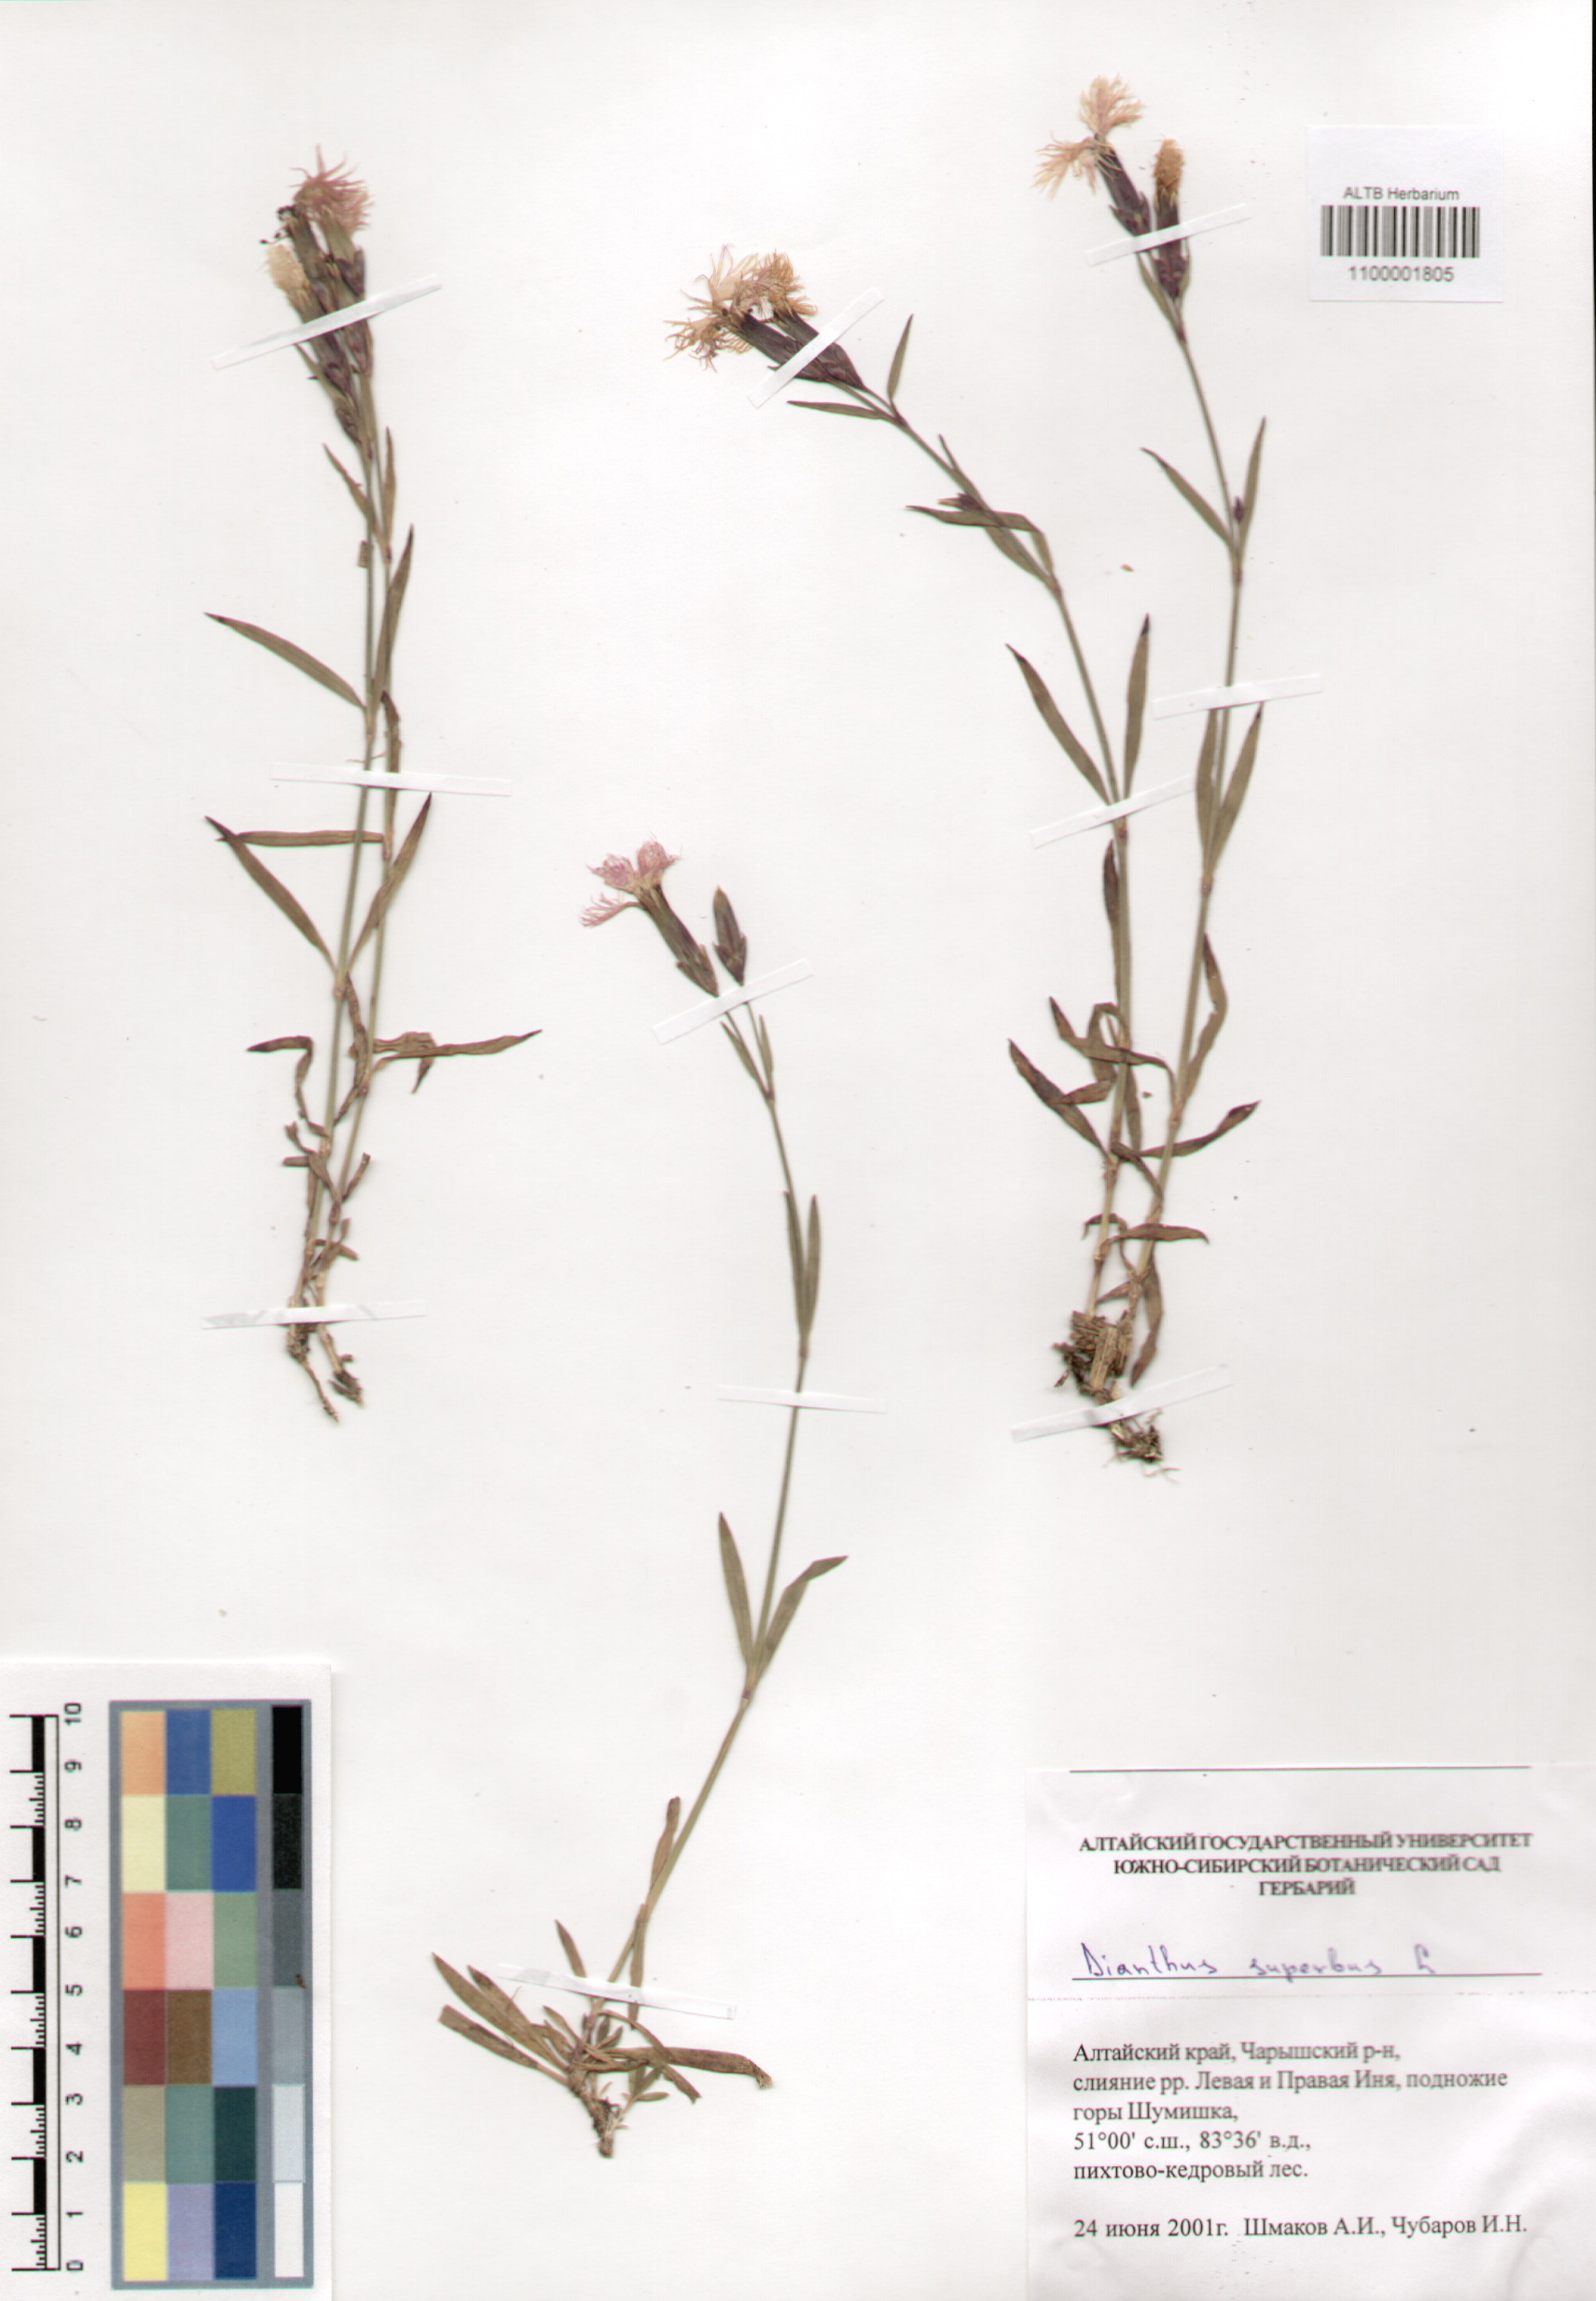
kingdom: Plantae
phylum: Tracheophyta
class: Magnoliopsida
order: Caryophyllales
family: Caryophyllaceae
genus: Dianthus
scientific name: Dianthus superbus
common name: Fringed pink
